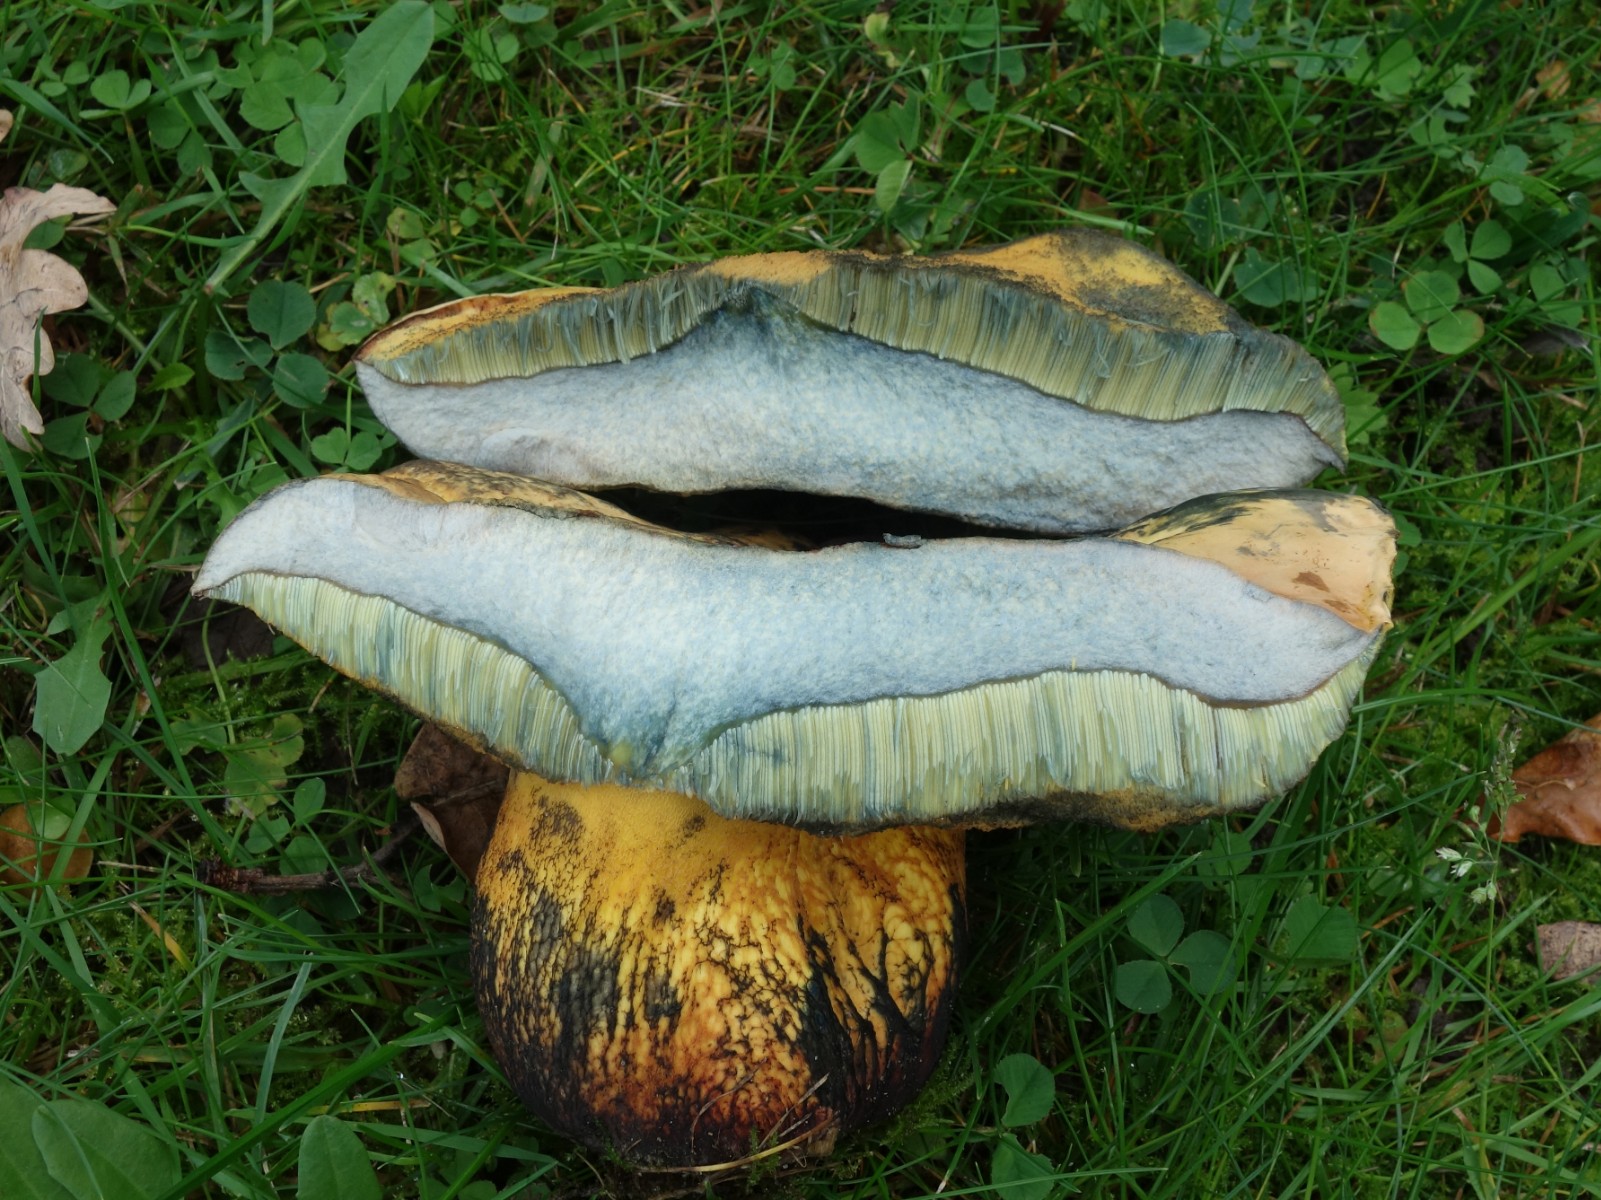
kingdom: Fungi
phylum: Basidiomycota
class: Agaricomycetes
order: Boletales
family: Boletaceae
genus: Suillellus
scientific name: Suillellus luridus
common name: netstokket indigorørhat
